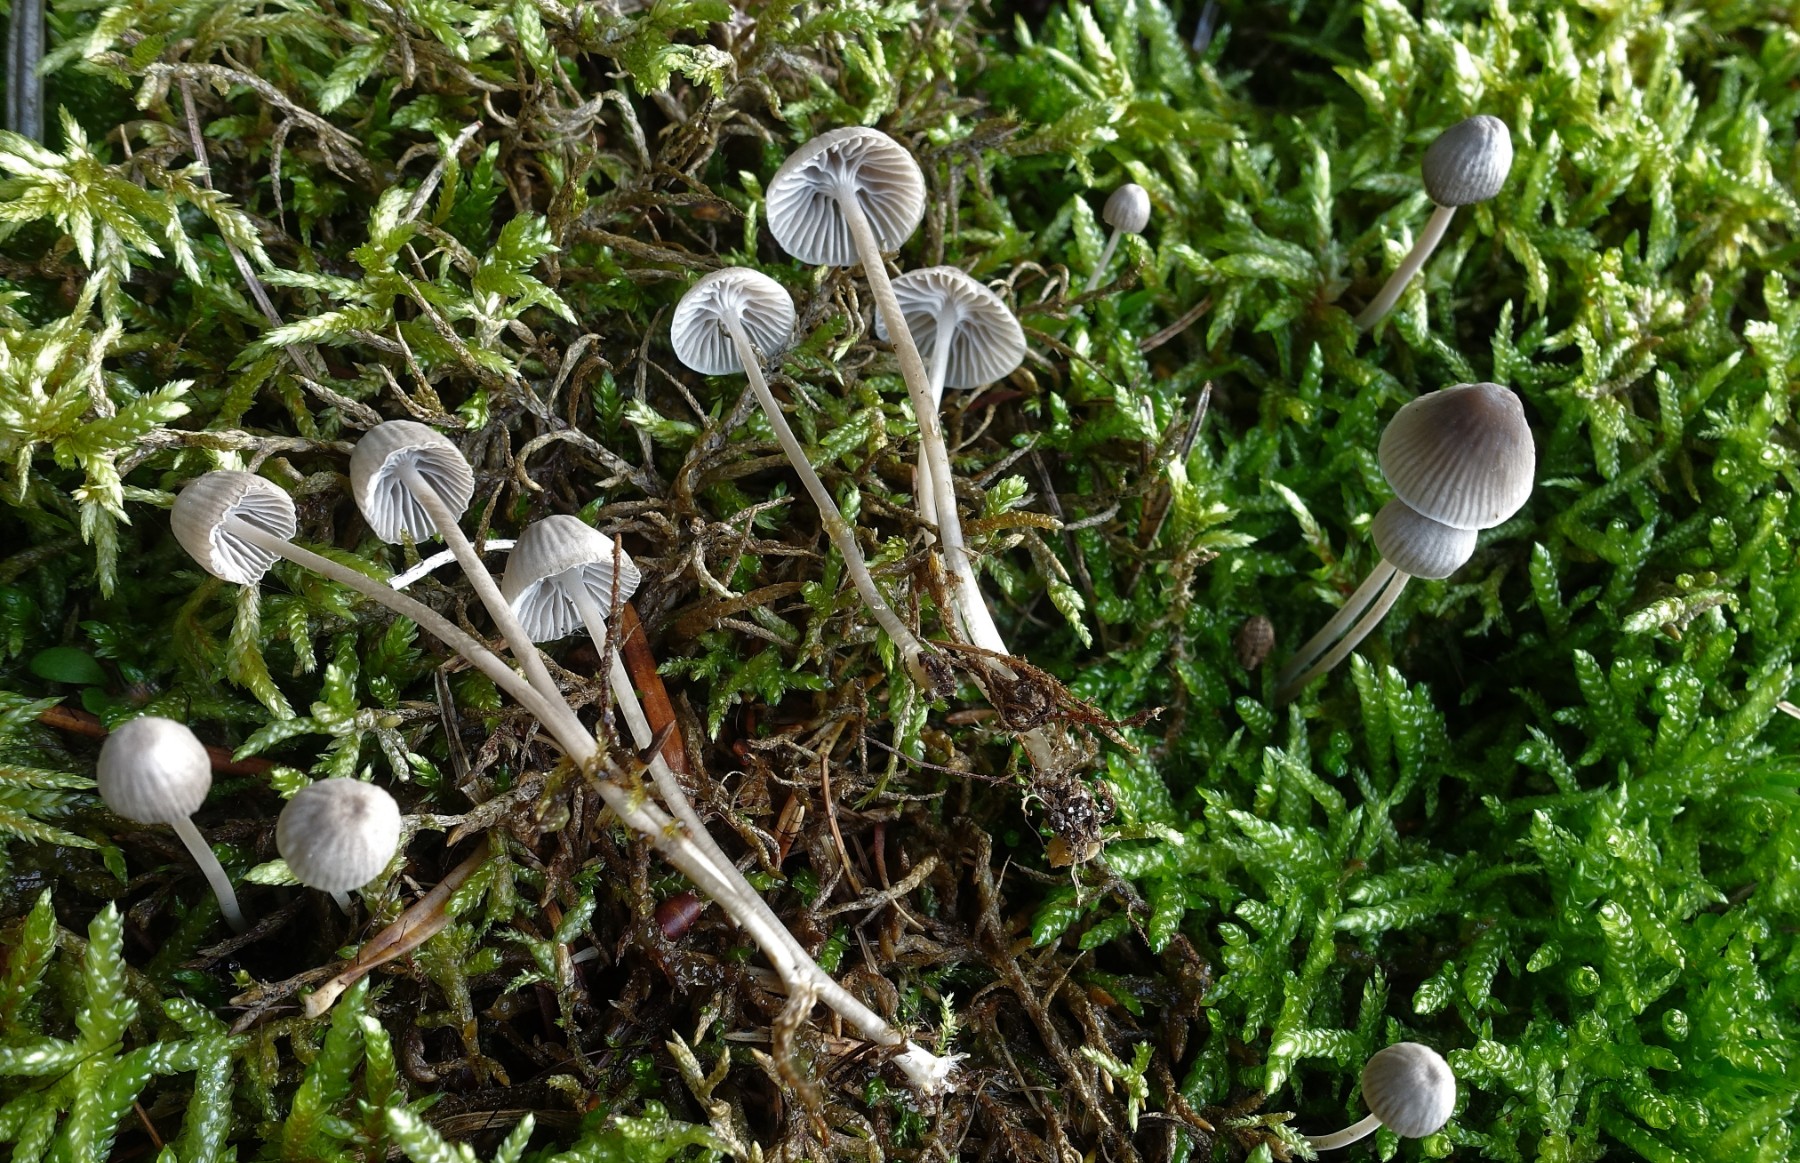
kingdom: Fungi
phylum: Basidiomycota
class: Agaricomycetes
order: Agaricales
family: Mycenaceae
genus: Mycena
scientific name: Mycena cinerella
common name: mel-huesvamp
